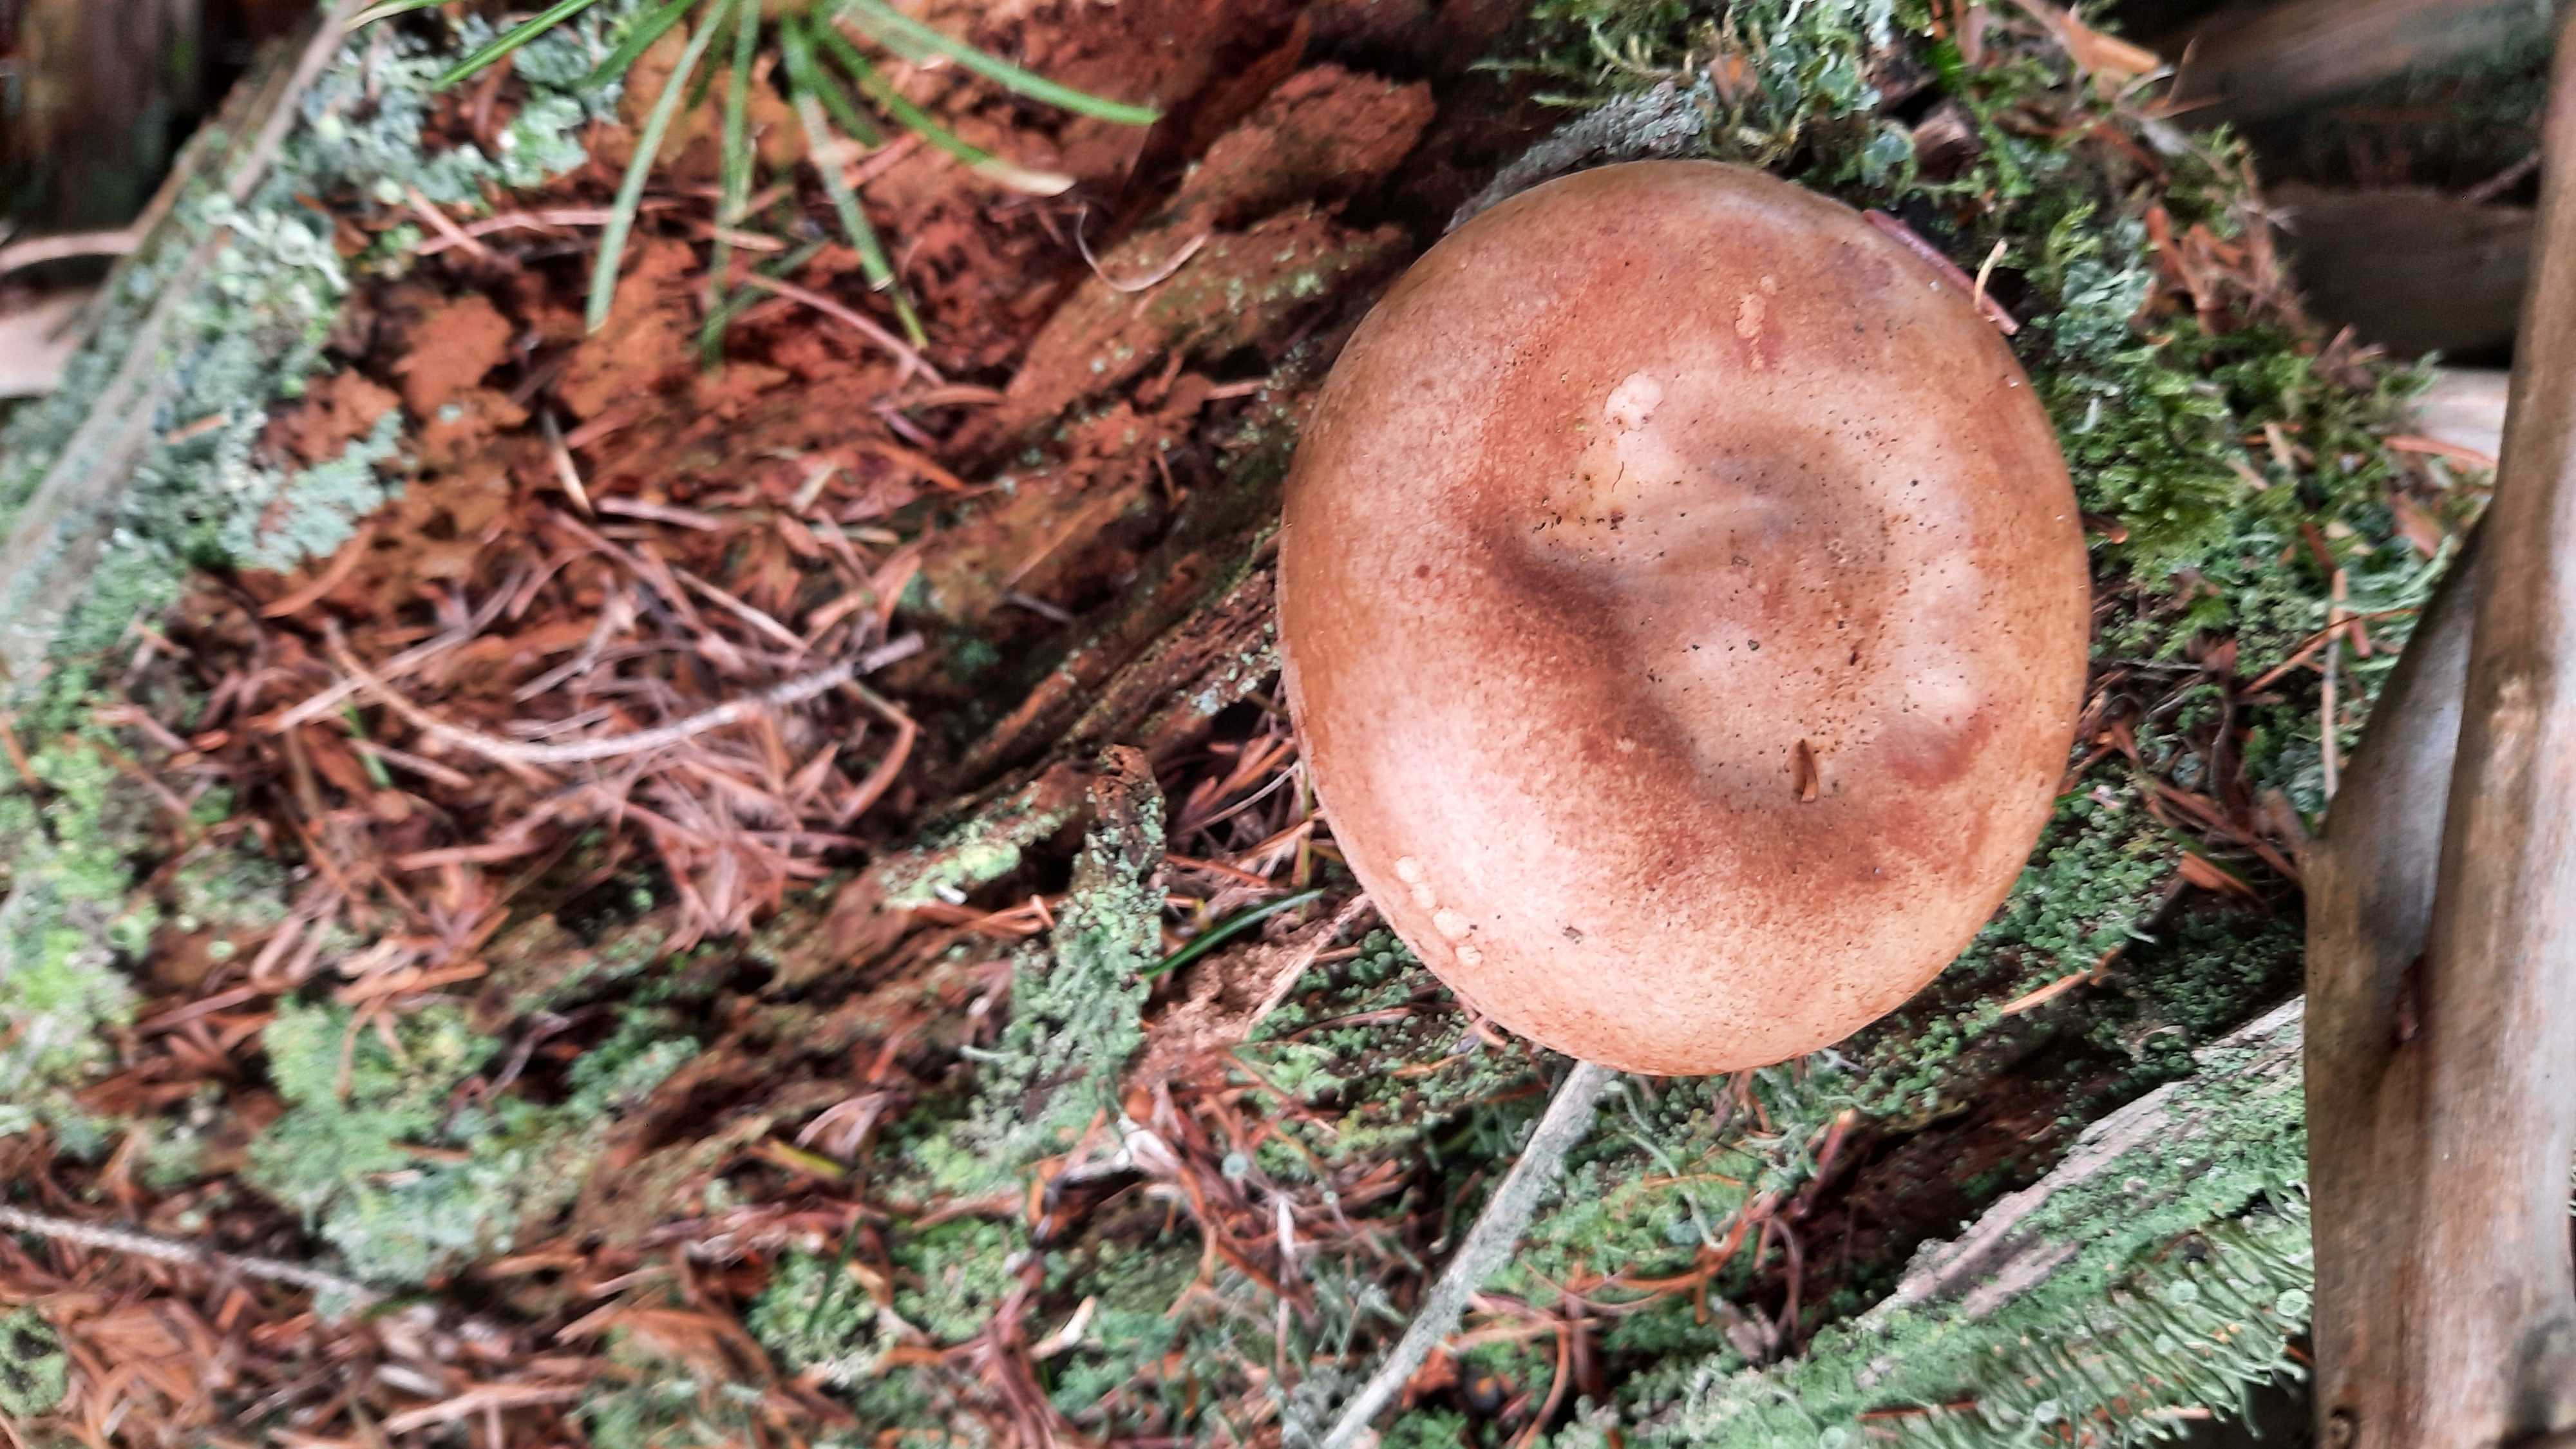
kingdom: Fungi
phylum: Basidiomycota
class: Agaricomycetes
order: Boletales
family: Paxillaceae
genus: Paxillus
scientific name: Paxillus involutus
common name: almindelig netbladhat
